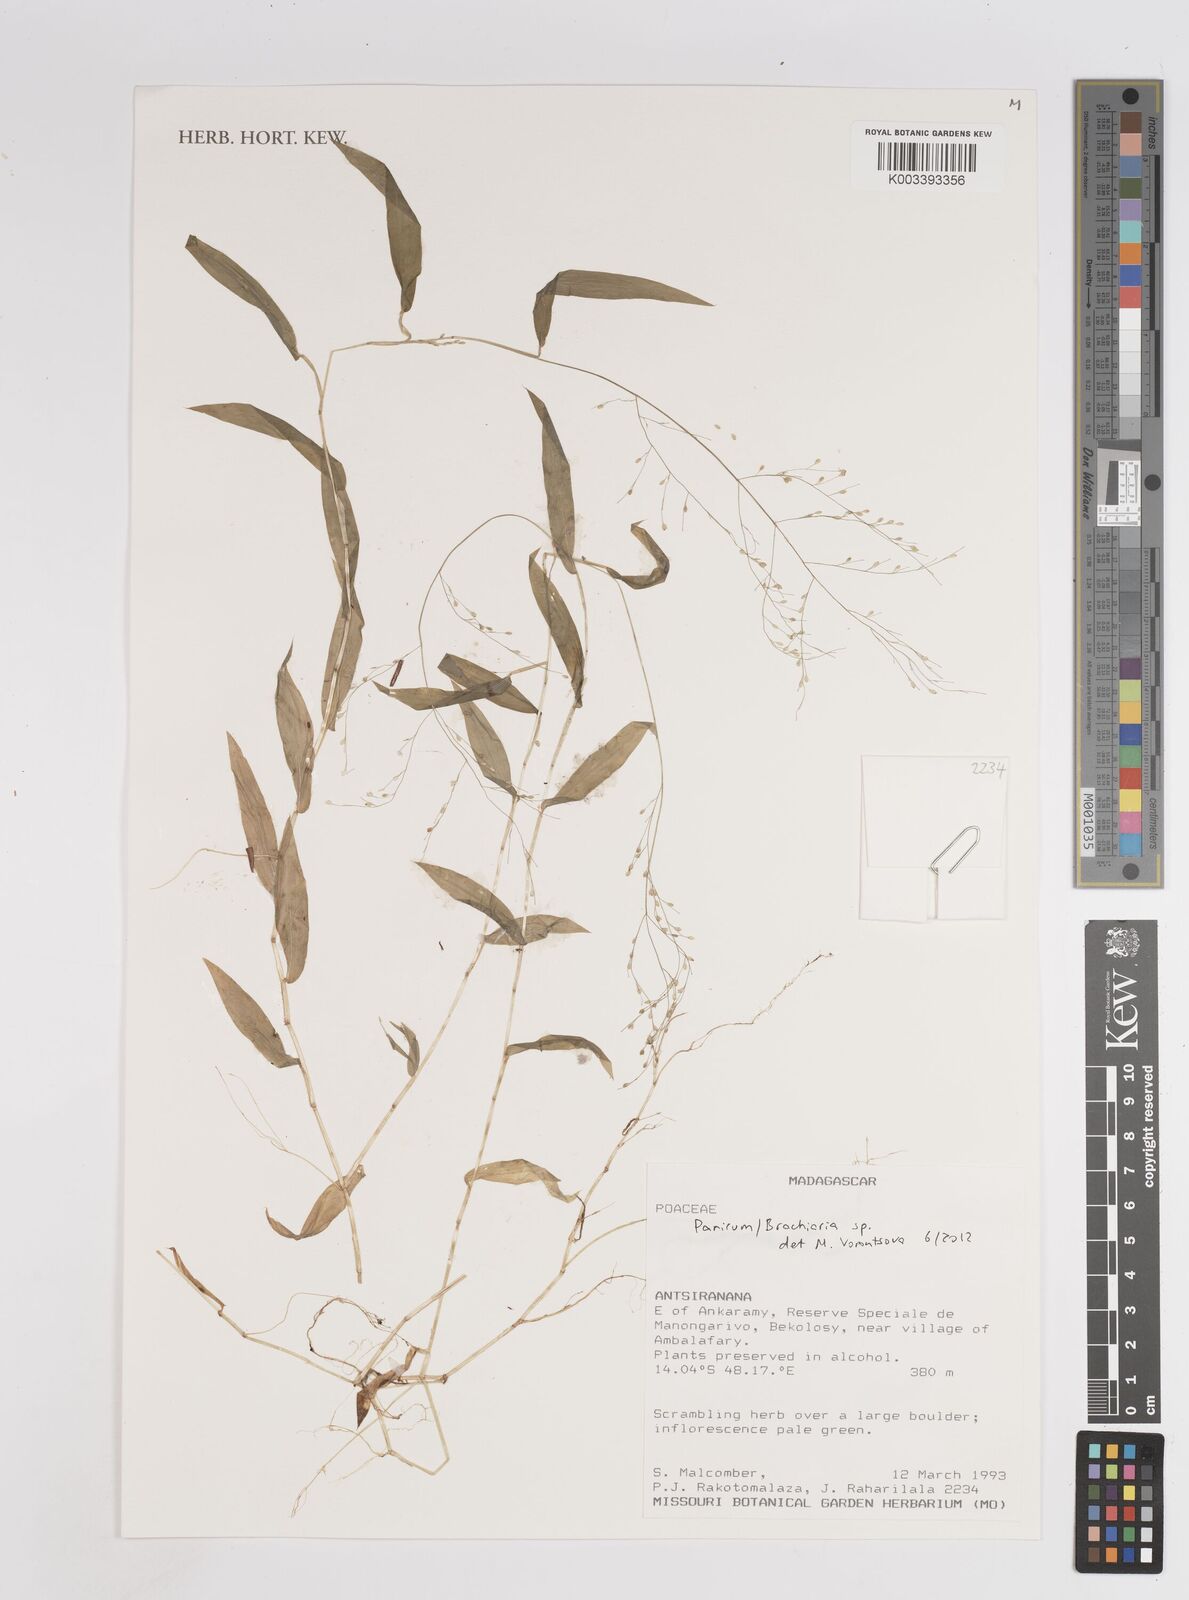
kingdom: Plantae
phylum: Tracheophyta
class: Liliopsida
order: Poales
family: Poaceae
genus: Panicum
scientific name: Panicum
